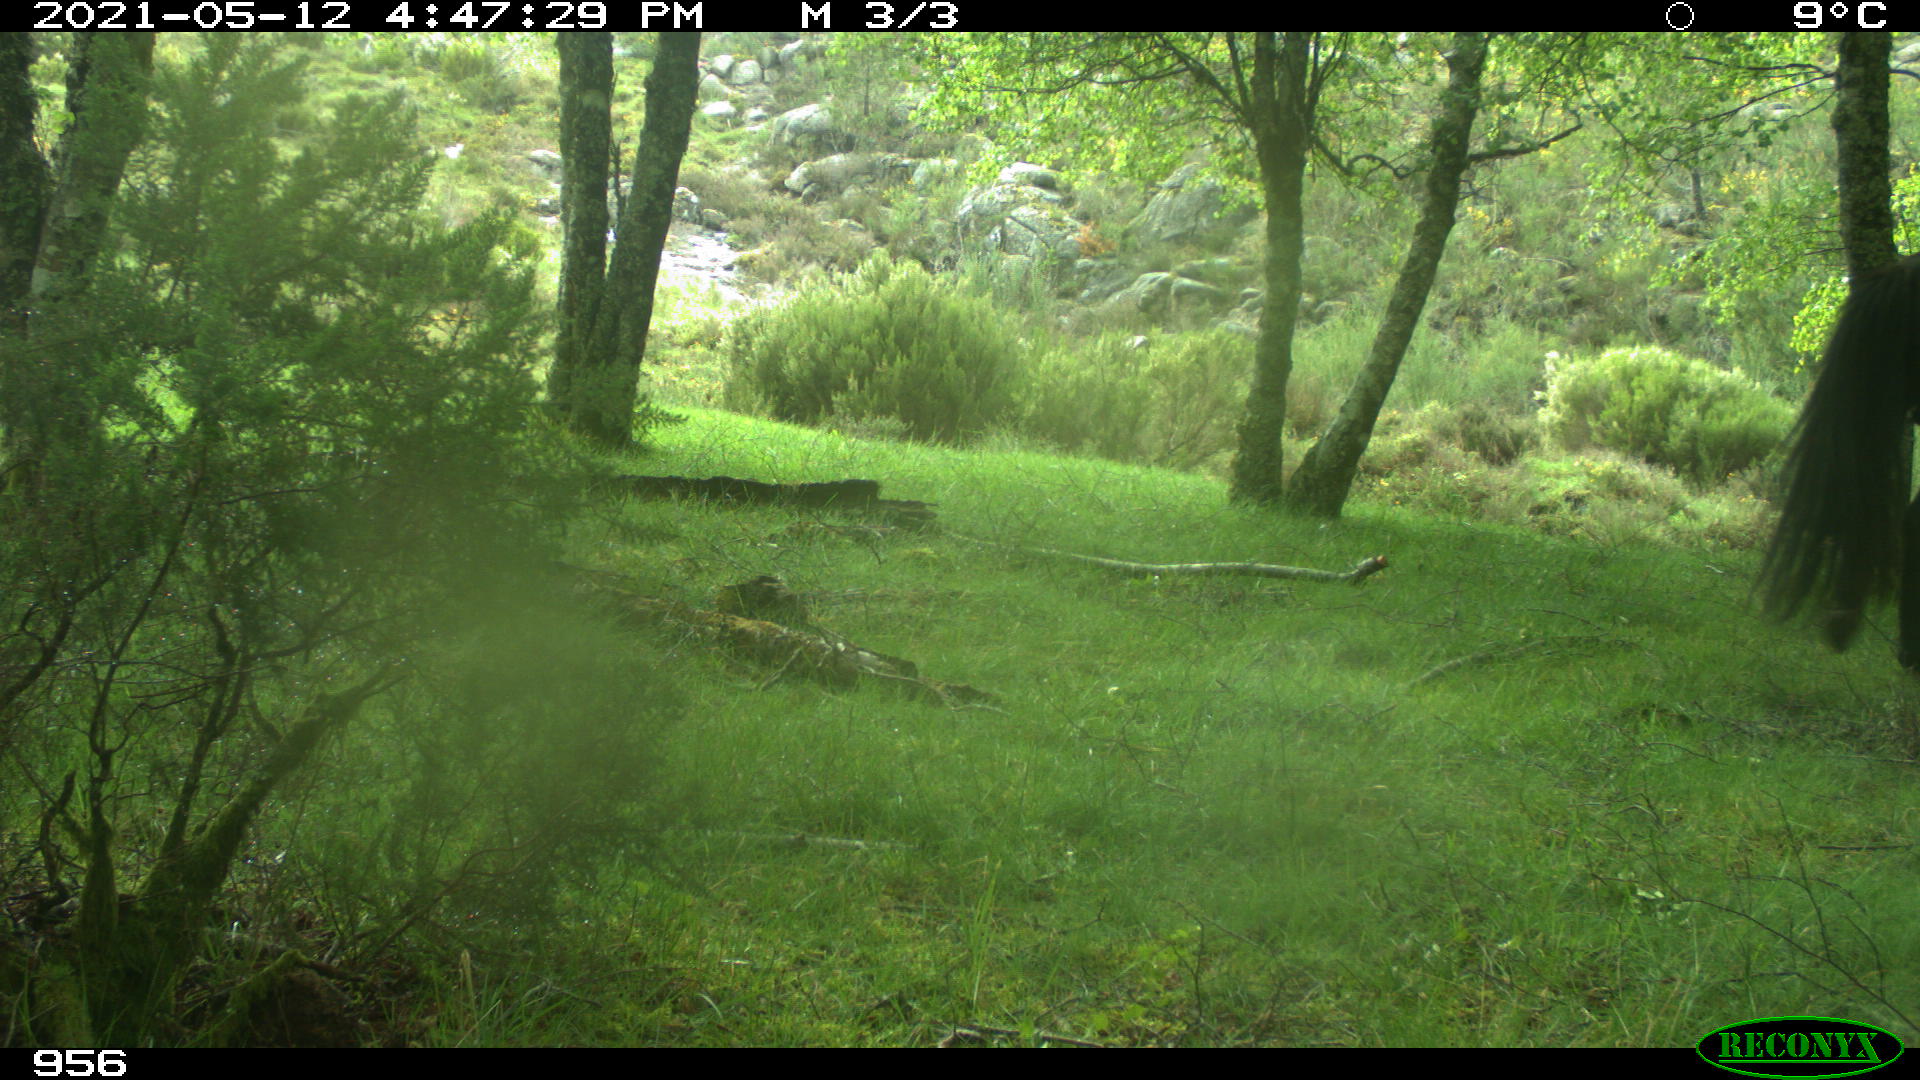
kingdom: Animalia
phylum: Chordata
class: Mammalia
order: Perissodactyla
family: Equidae
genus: Equus
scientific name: Equus caballus
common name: Horse
